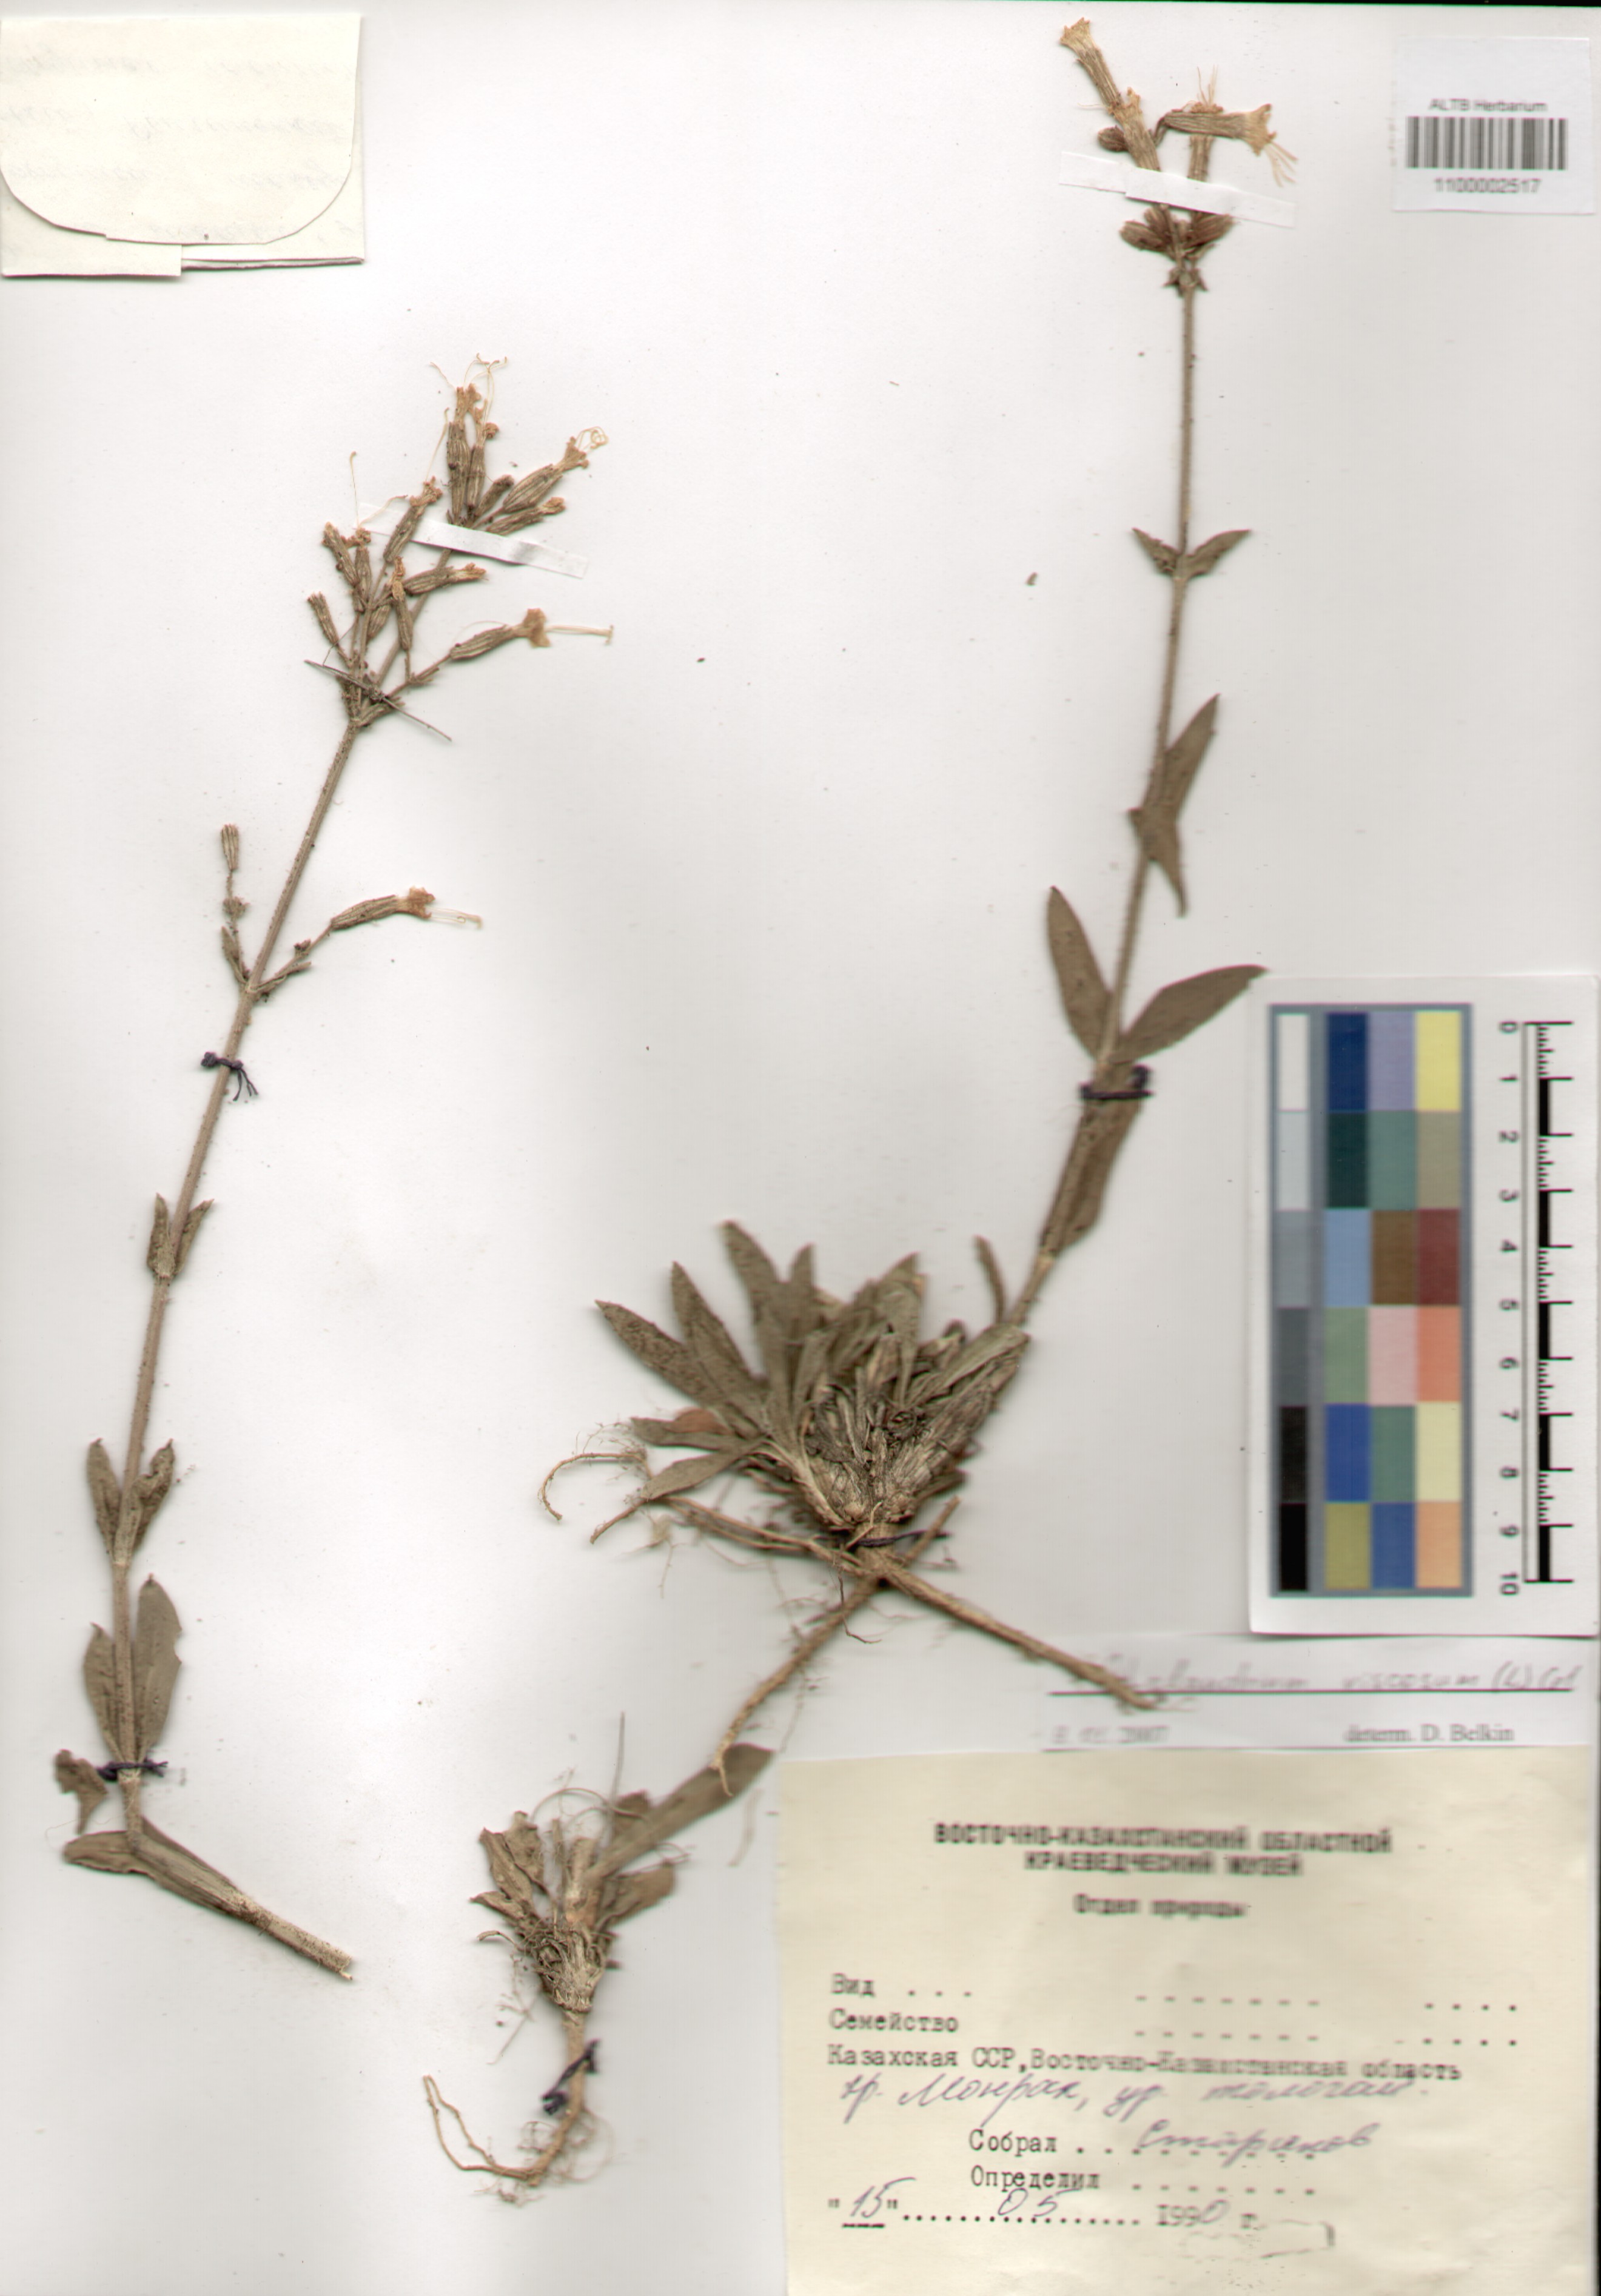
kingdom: Plantae
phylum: Tracheophyta
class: Magnoliopsida
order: Caryophyllales
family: Caryophyllaceae
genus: Silene
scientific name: Silene viscosa
